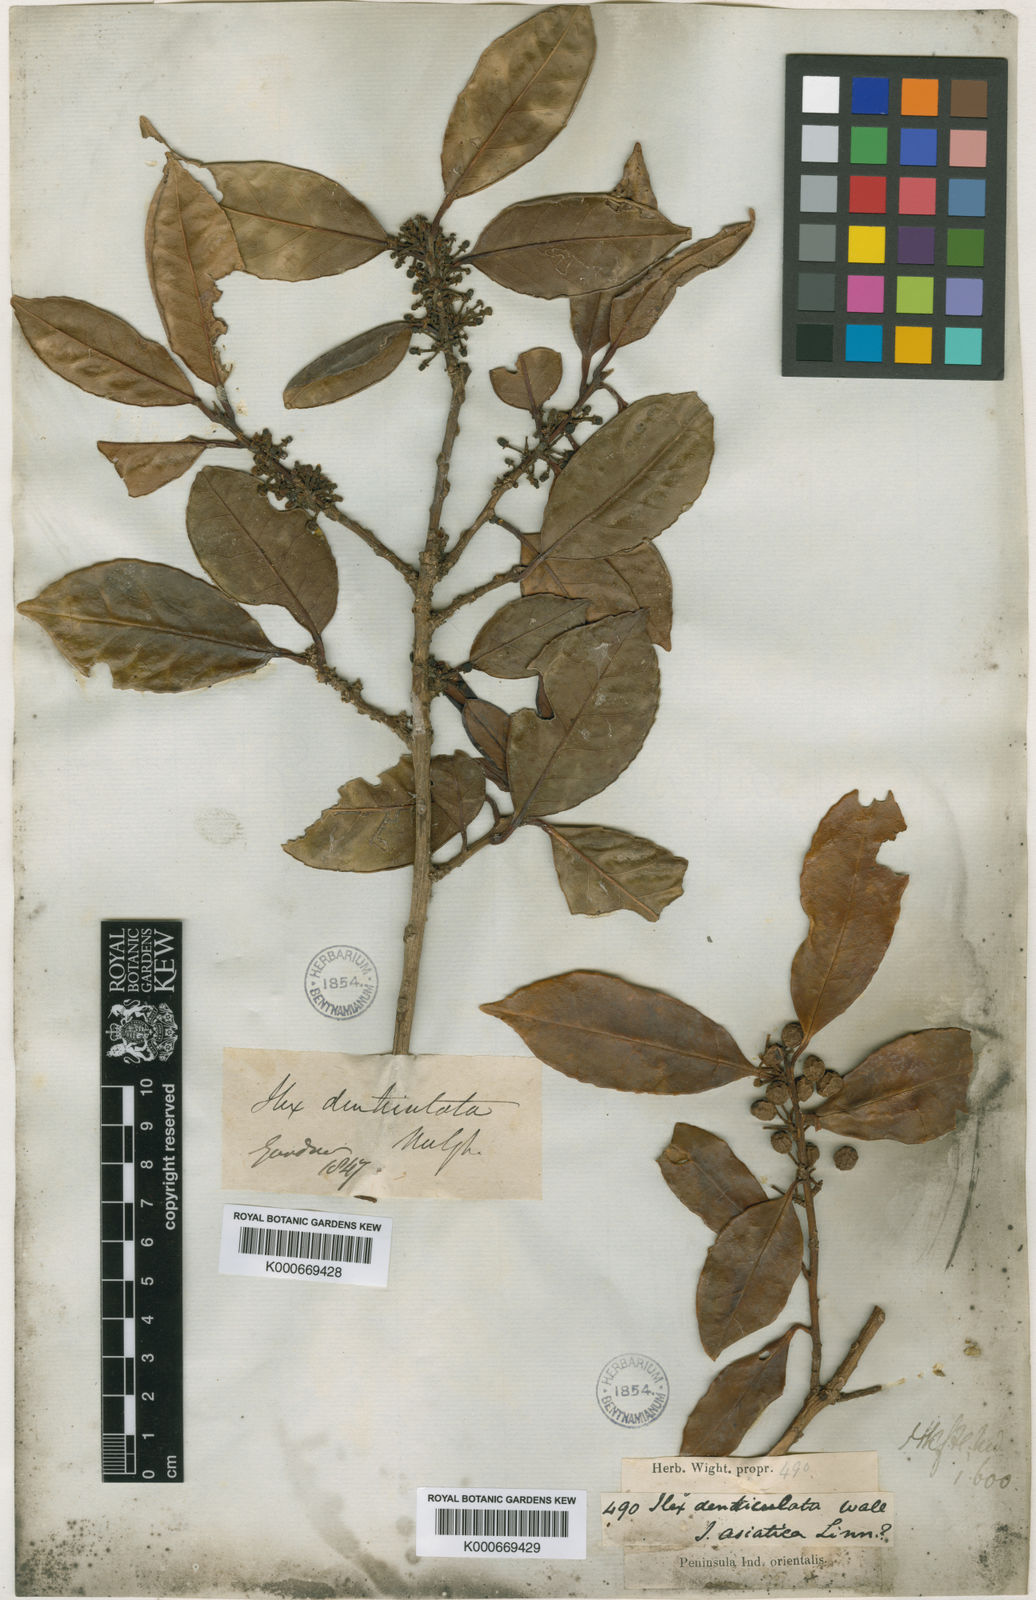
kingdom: Plantae
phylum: Tracheophyta
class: Magnoliopsida
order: Aquifoliales
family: Aquifoliaceae
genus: Ilex
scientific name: Ilex denticulata
